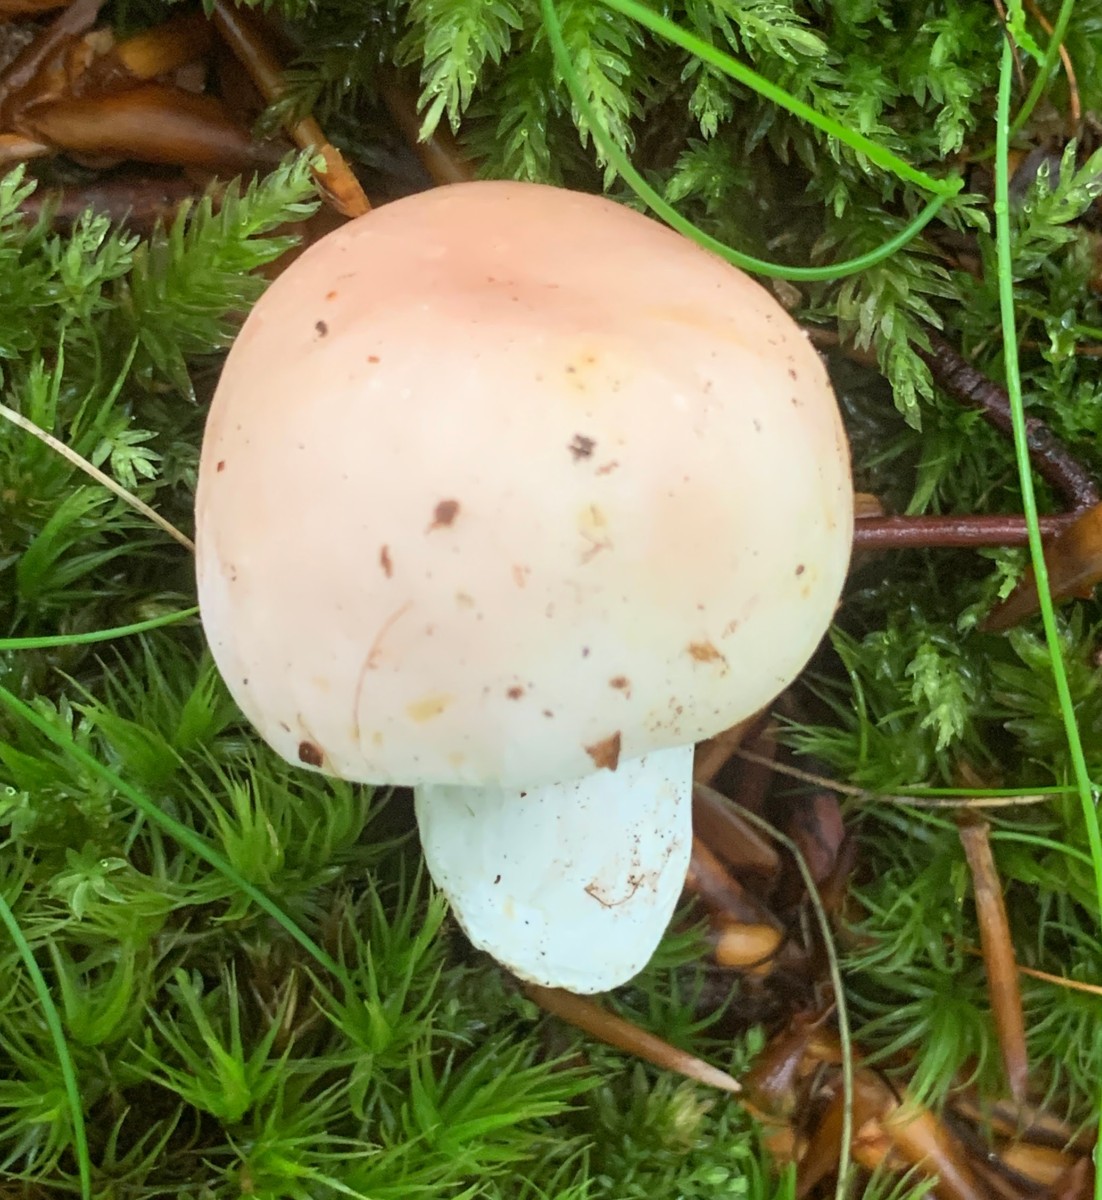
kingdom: Fungi
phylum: Basidiomycota
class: Agaricomycetes
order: Russulales
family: Russulaceae
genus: Russula
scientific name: Russula
